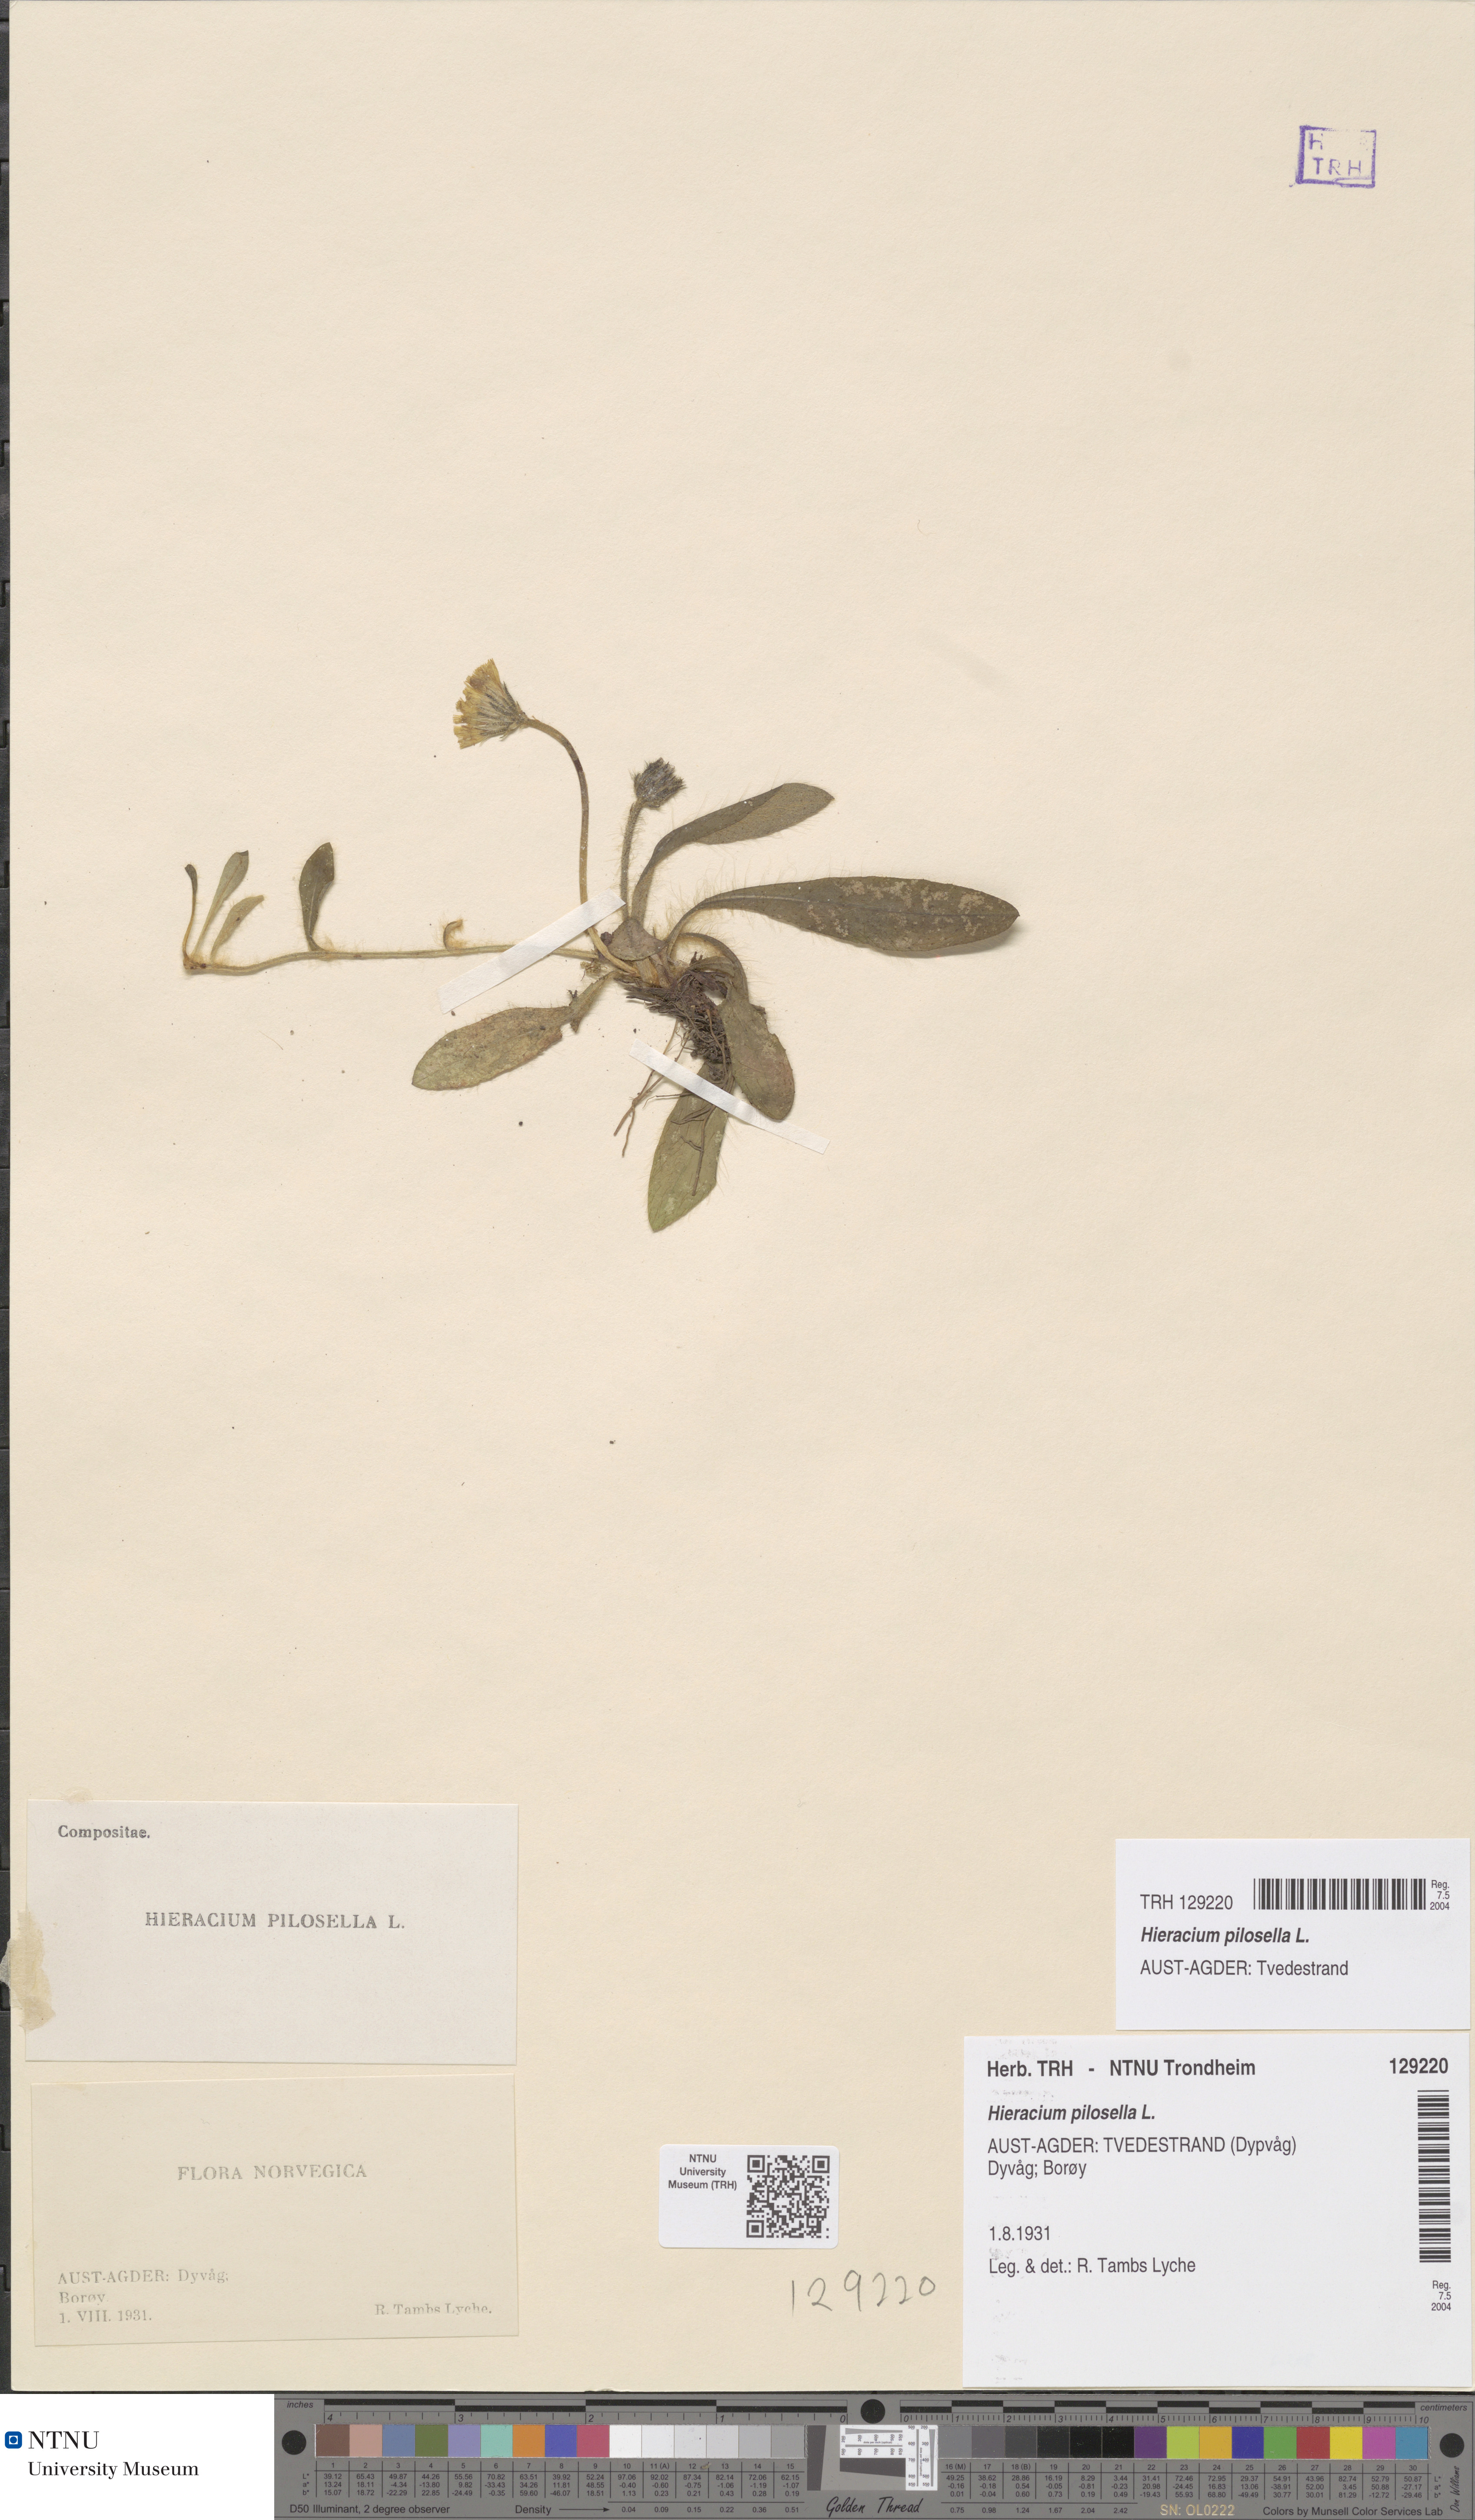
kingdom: Plantae
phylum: Tracheophyta
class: Magnoliopsida
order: Asterales
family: Asteraceae
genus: Pilosella
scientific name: Pilosella officinarum
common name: Mouse-ear hawkweed
